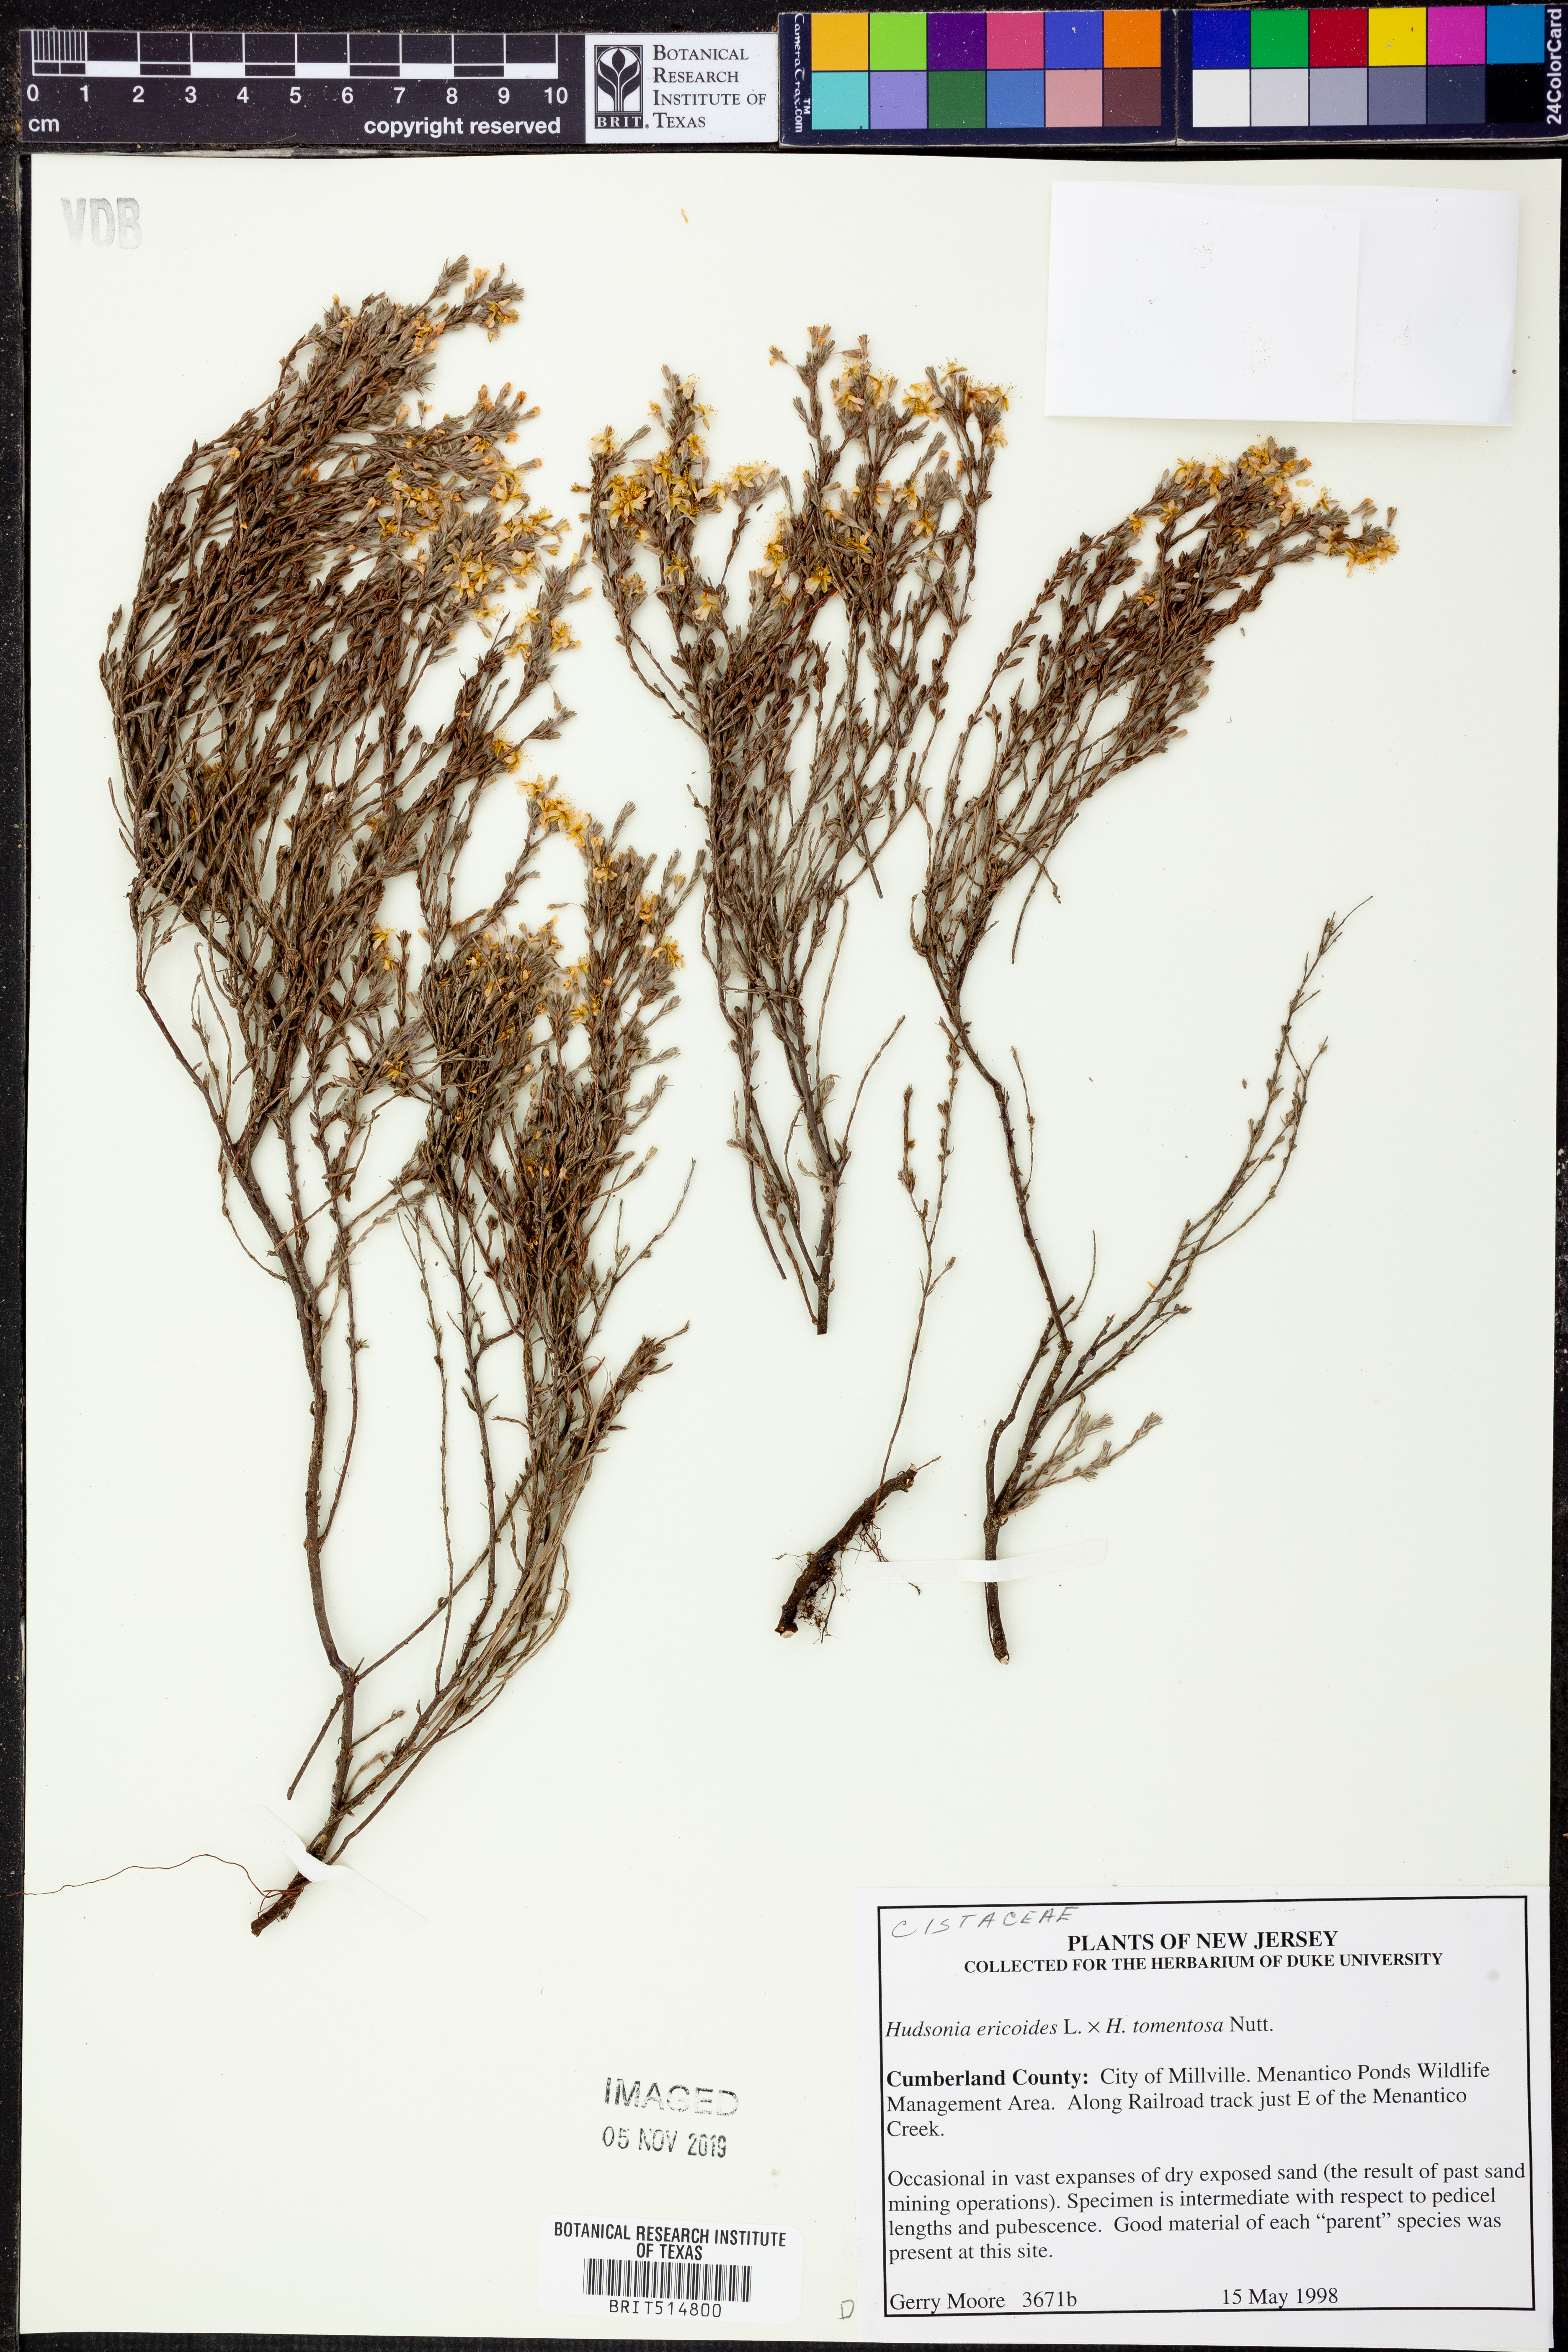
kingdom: Plantae
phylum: Tracheophyta
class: Magnoliopsida
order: Malvales
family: Cistaceae
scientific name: Cistaceae
